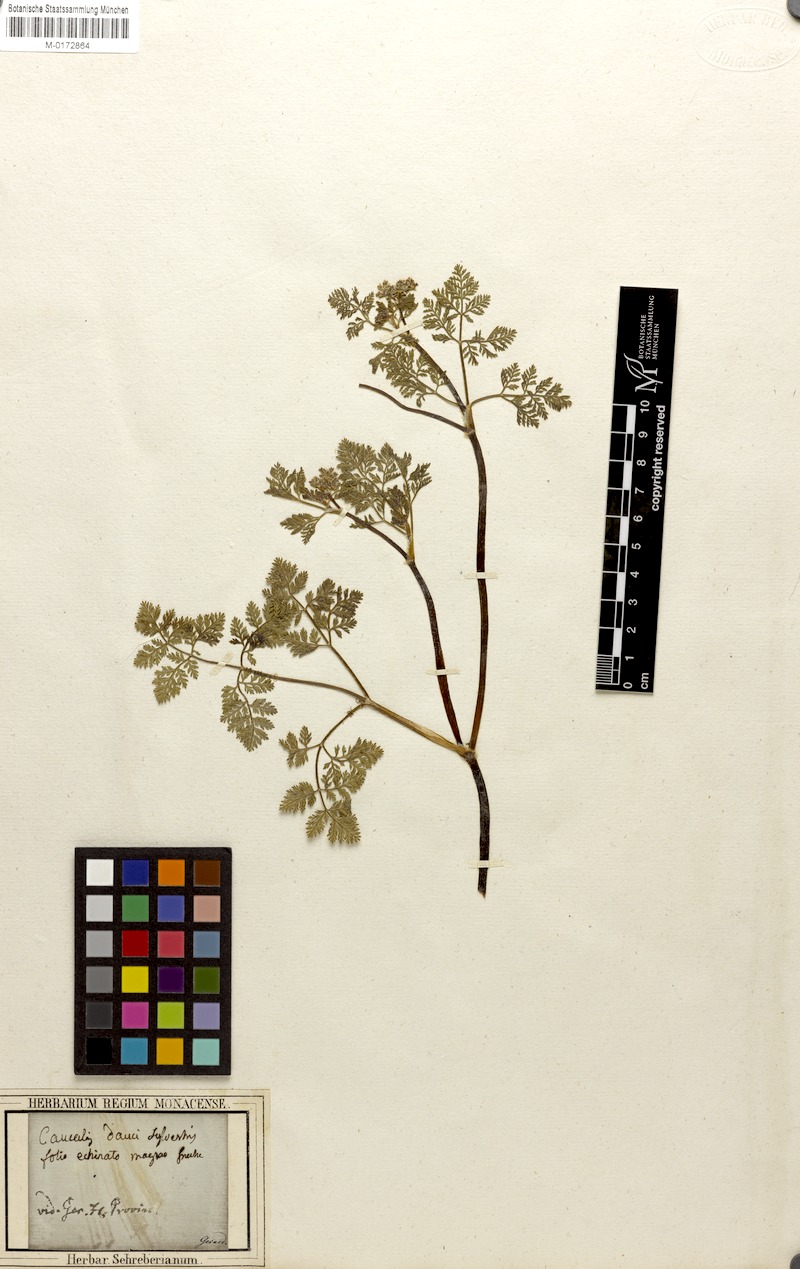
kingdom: Plantae
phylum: Tracheophyta
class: Magnoliopsida
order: Apiales
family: Apiaceae
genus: Caucalis
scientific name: Caucalis platycarpos
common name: Small bur-parsley
